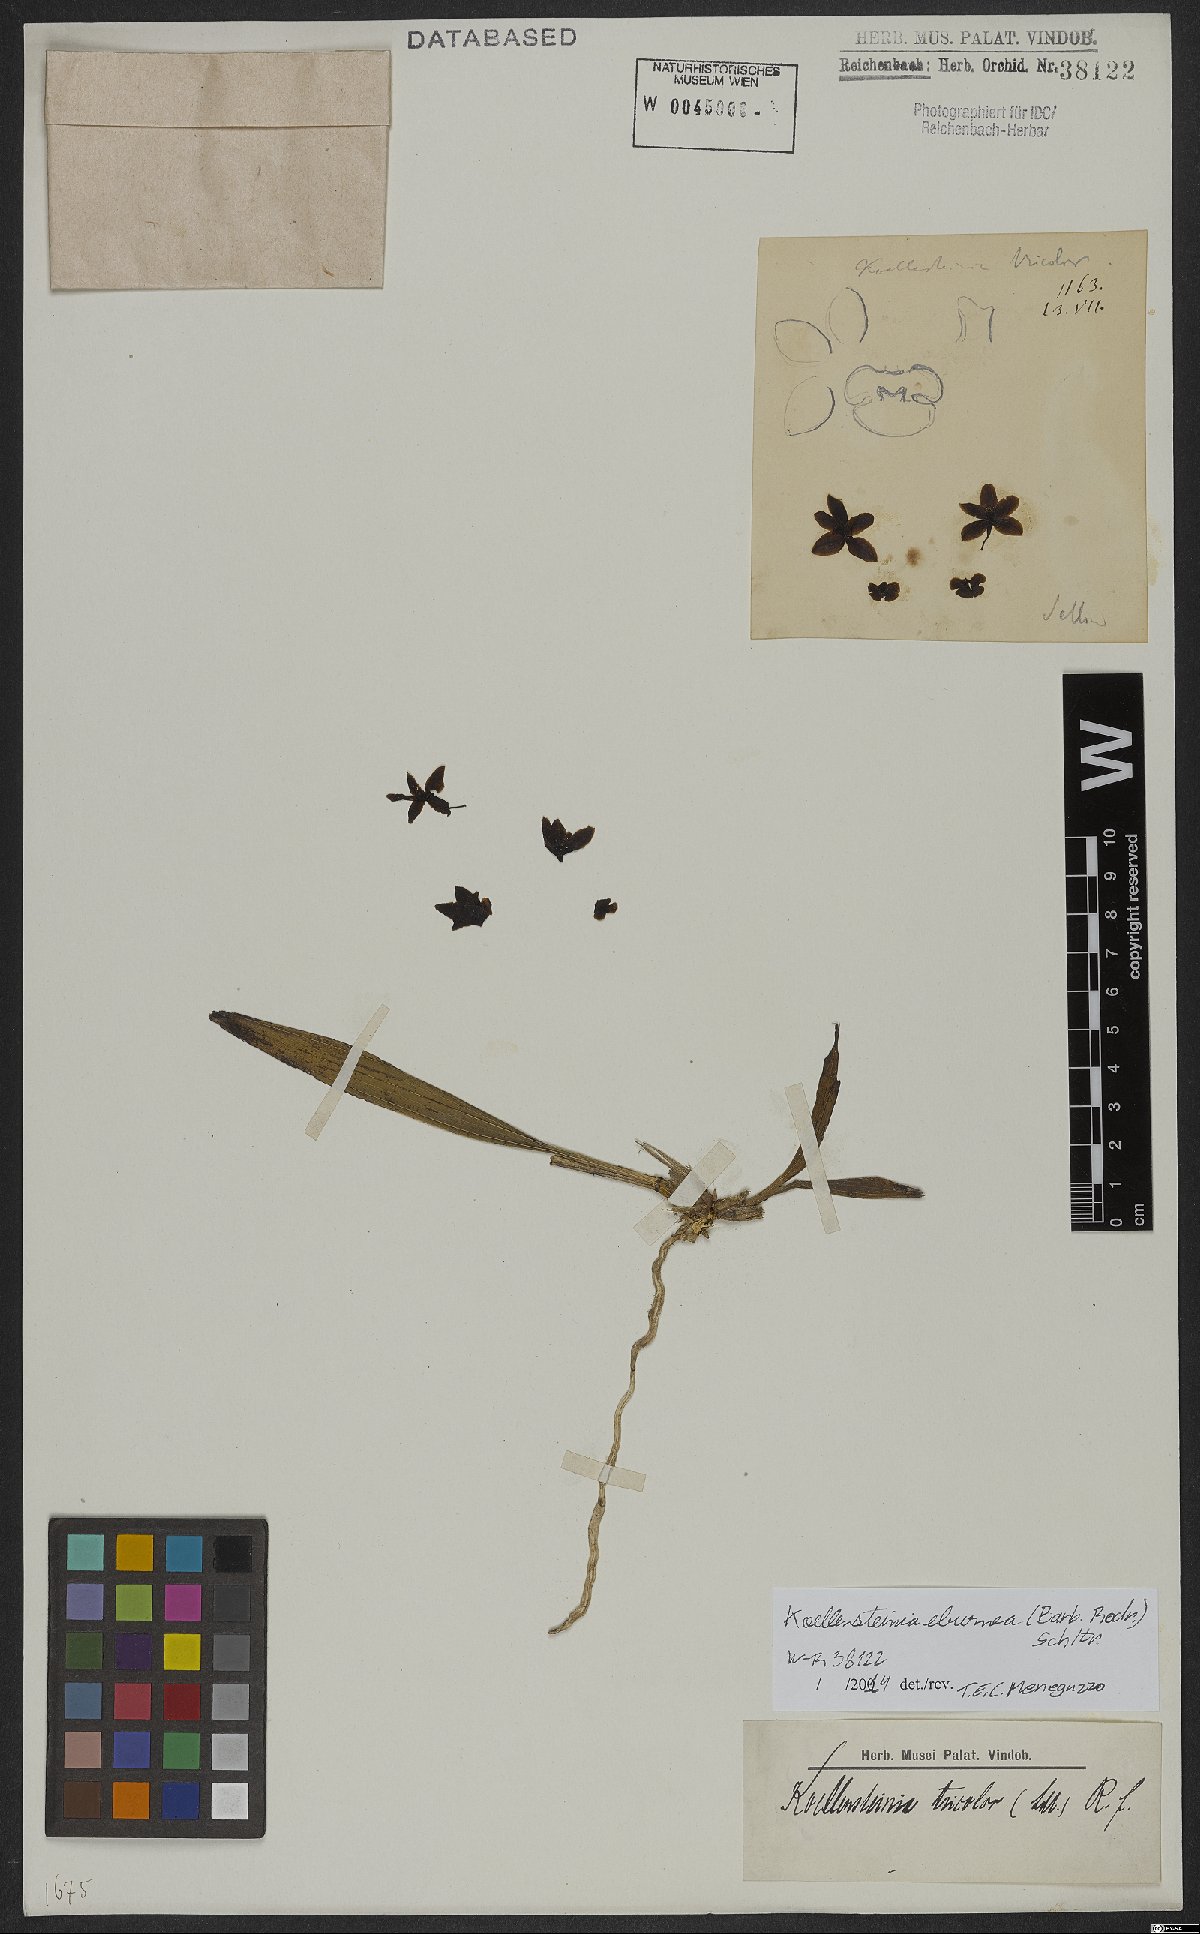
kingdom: Plantae
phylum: Tracheophyta
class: Liliopsida
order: Asparagales
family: Orchidaceae
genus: Koellensteinia
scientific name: Koellensteinia eburnea
